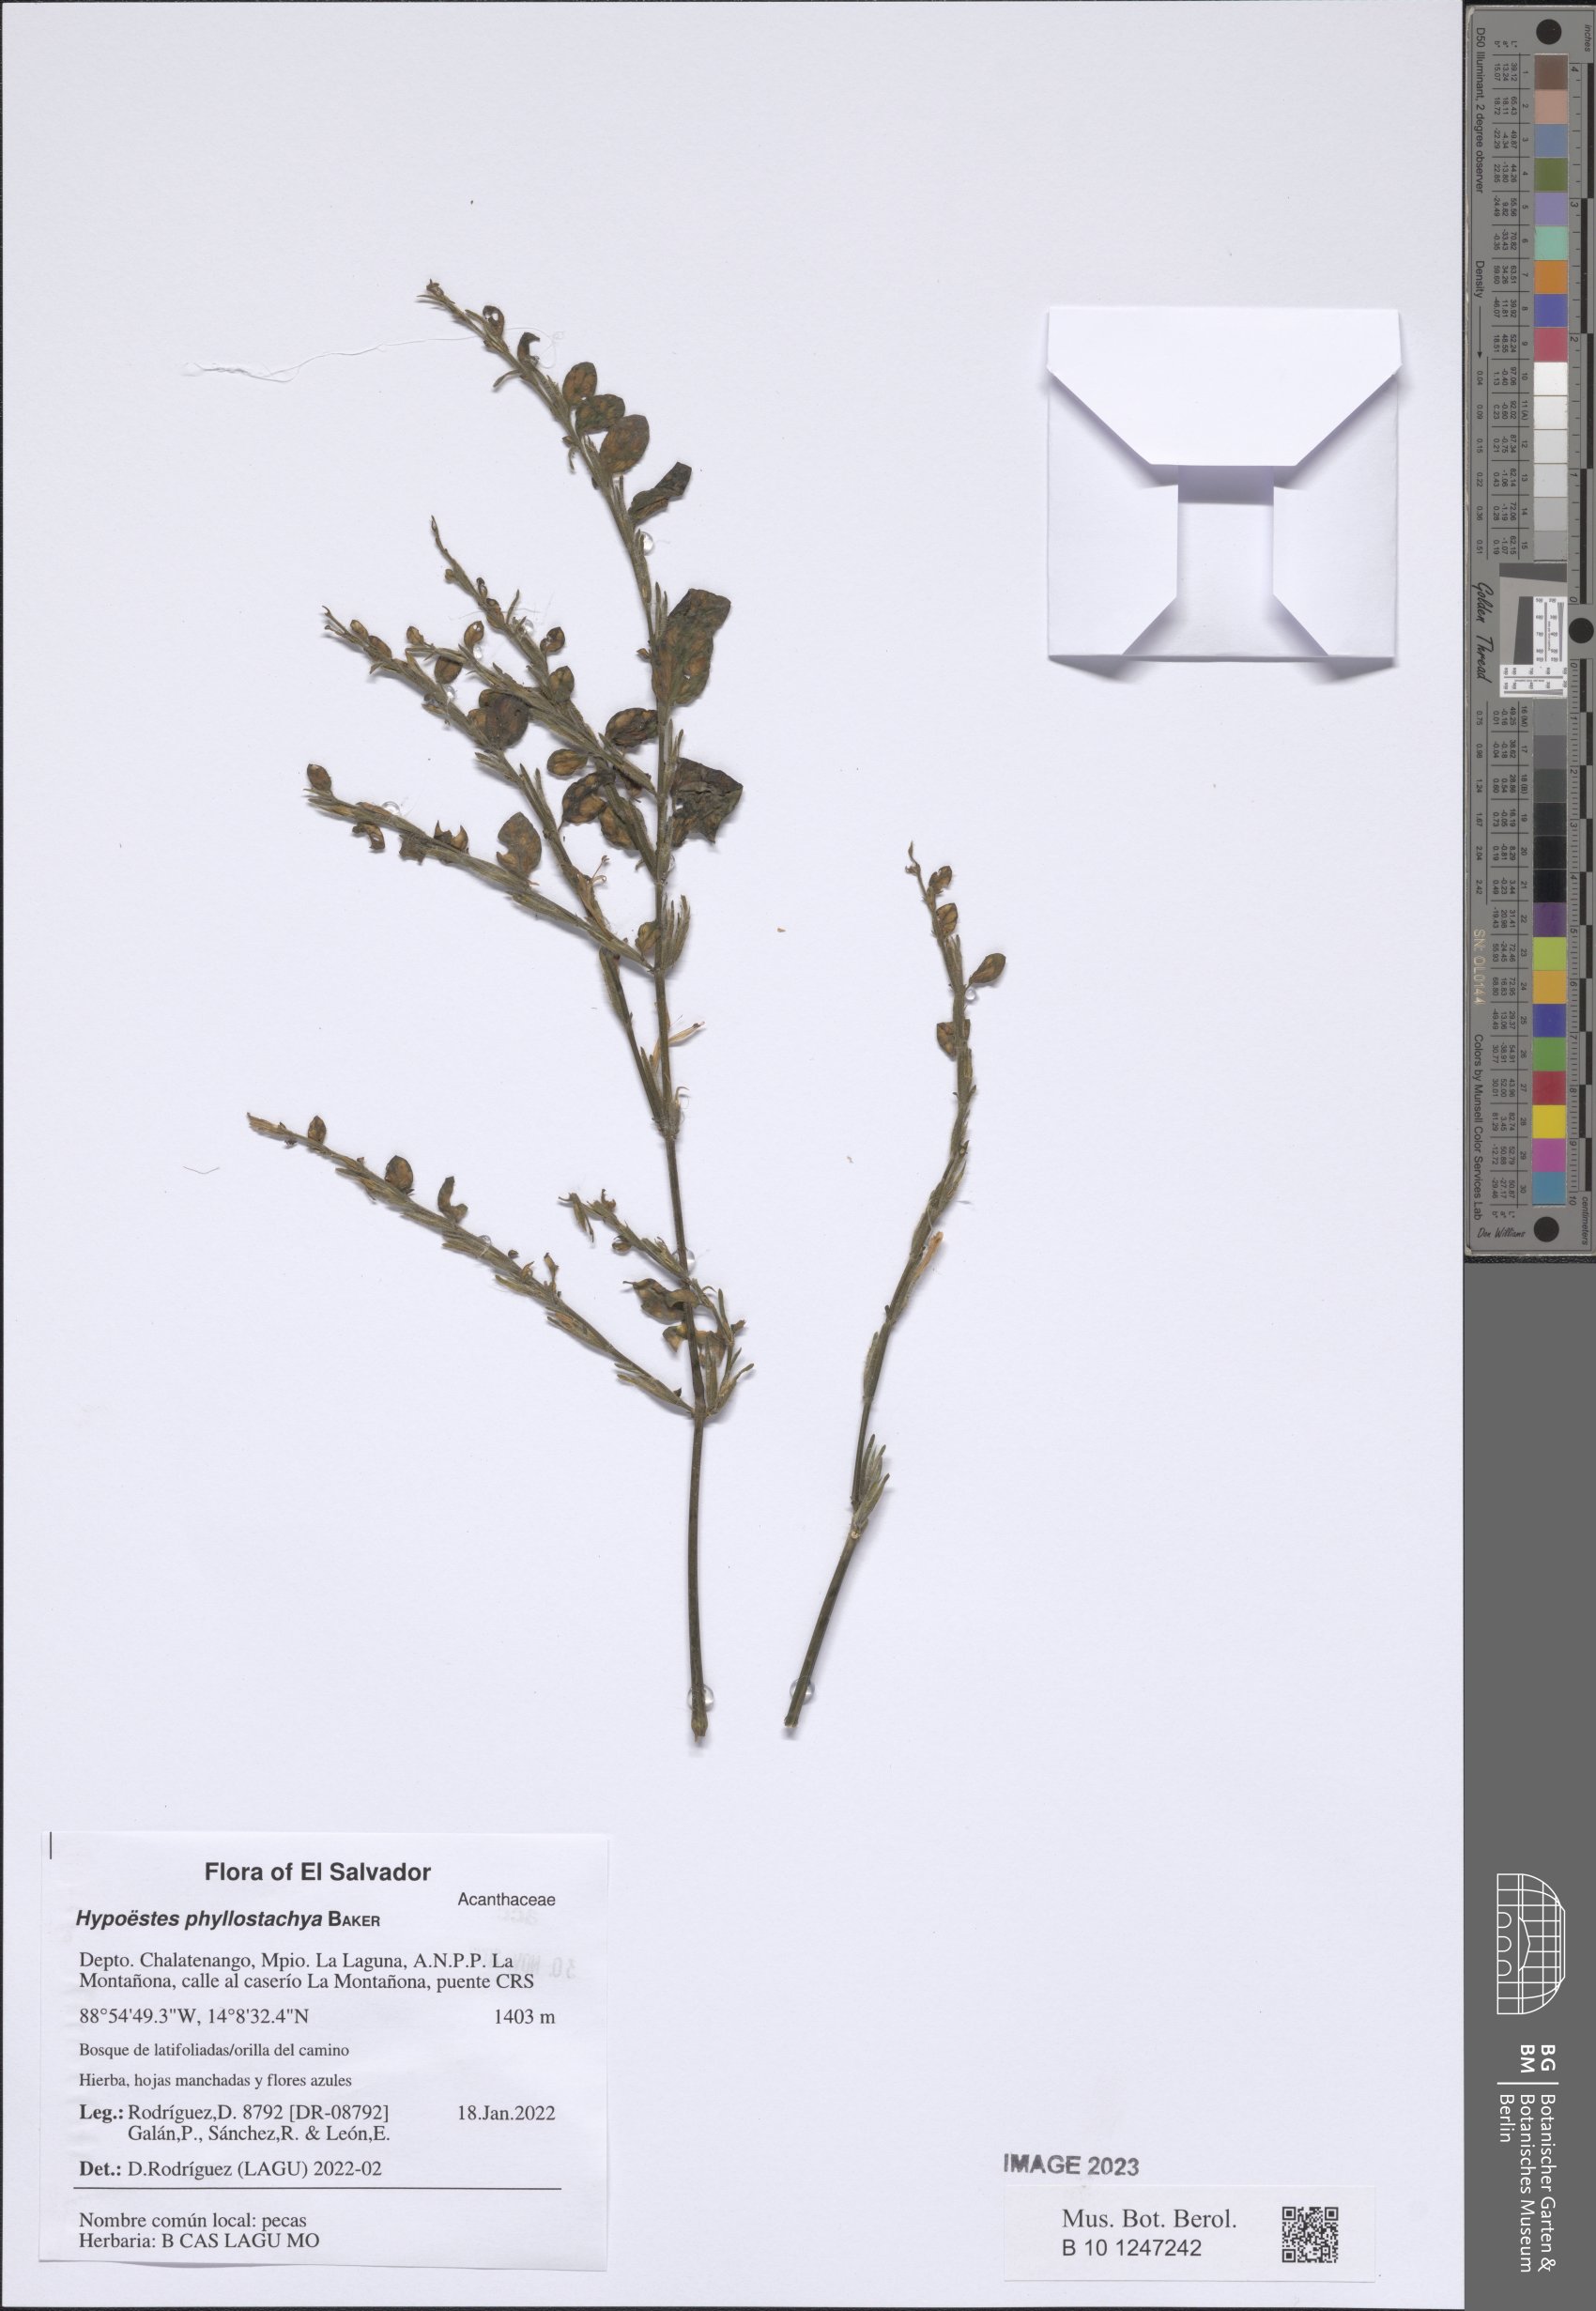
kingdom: Plantae
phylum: Tracheophyta
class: Magnoliopsida
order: Lamiales
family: Acanthaceae
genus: Hypoestes
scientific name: Hypoestes phyllostachya
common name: Polkadot-plant
